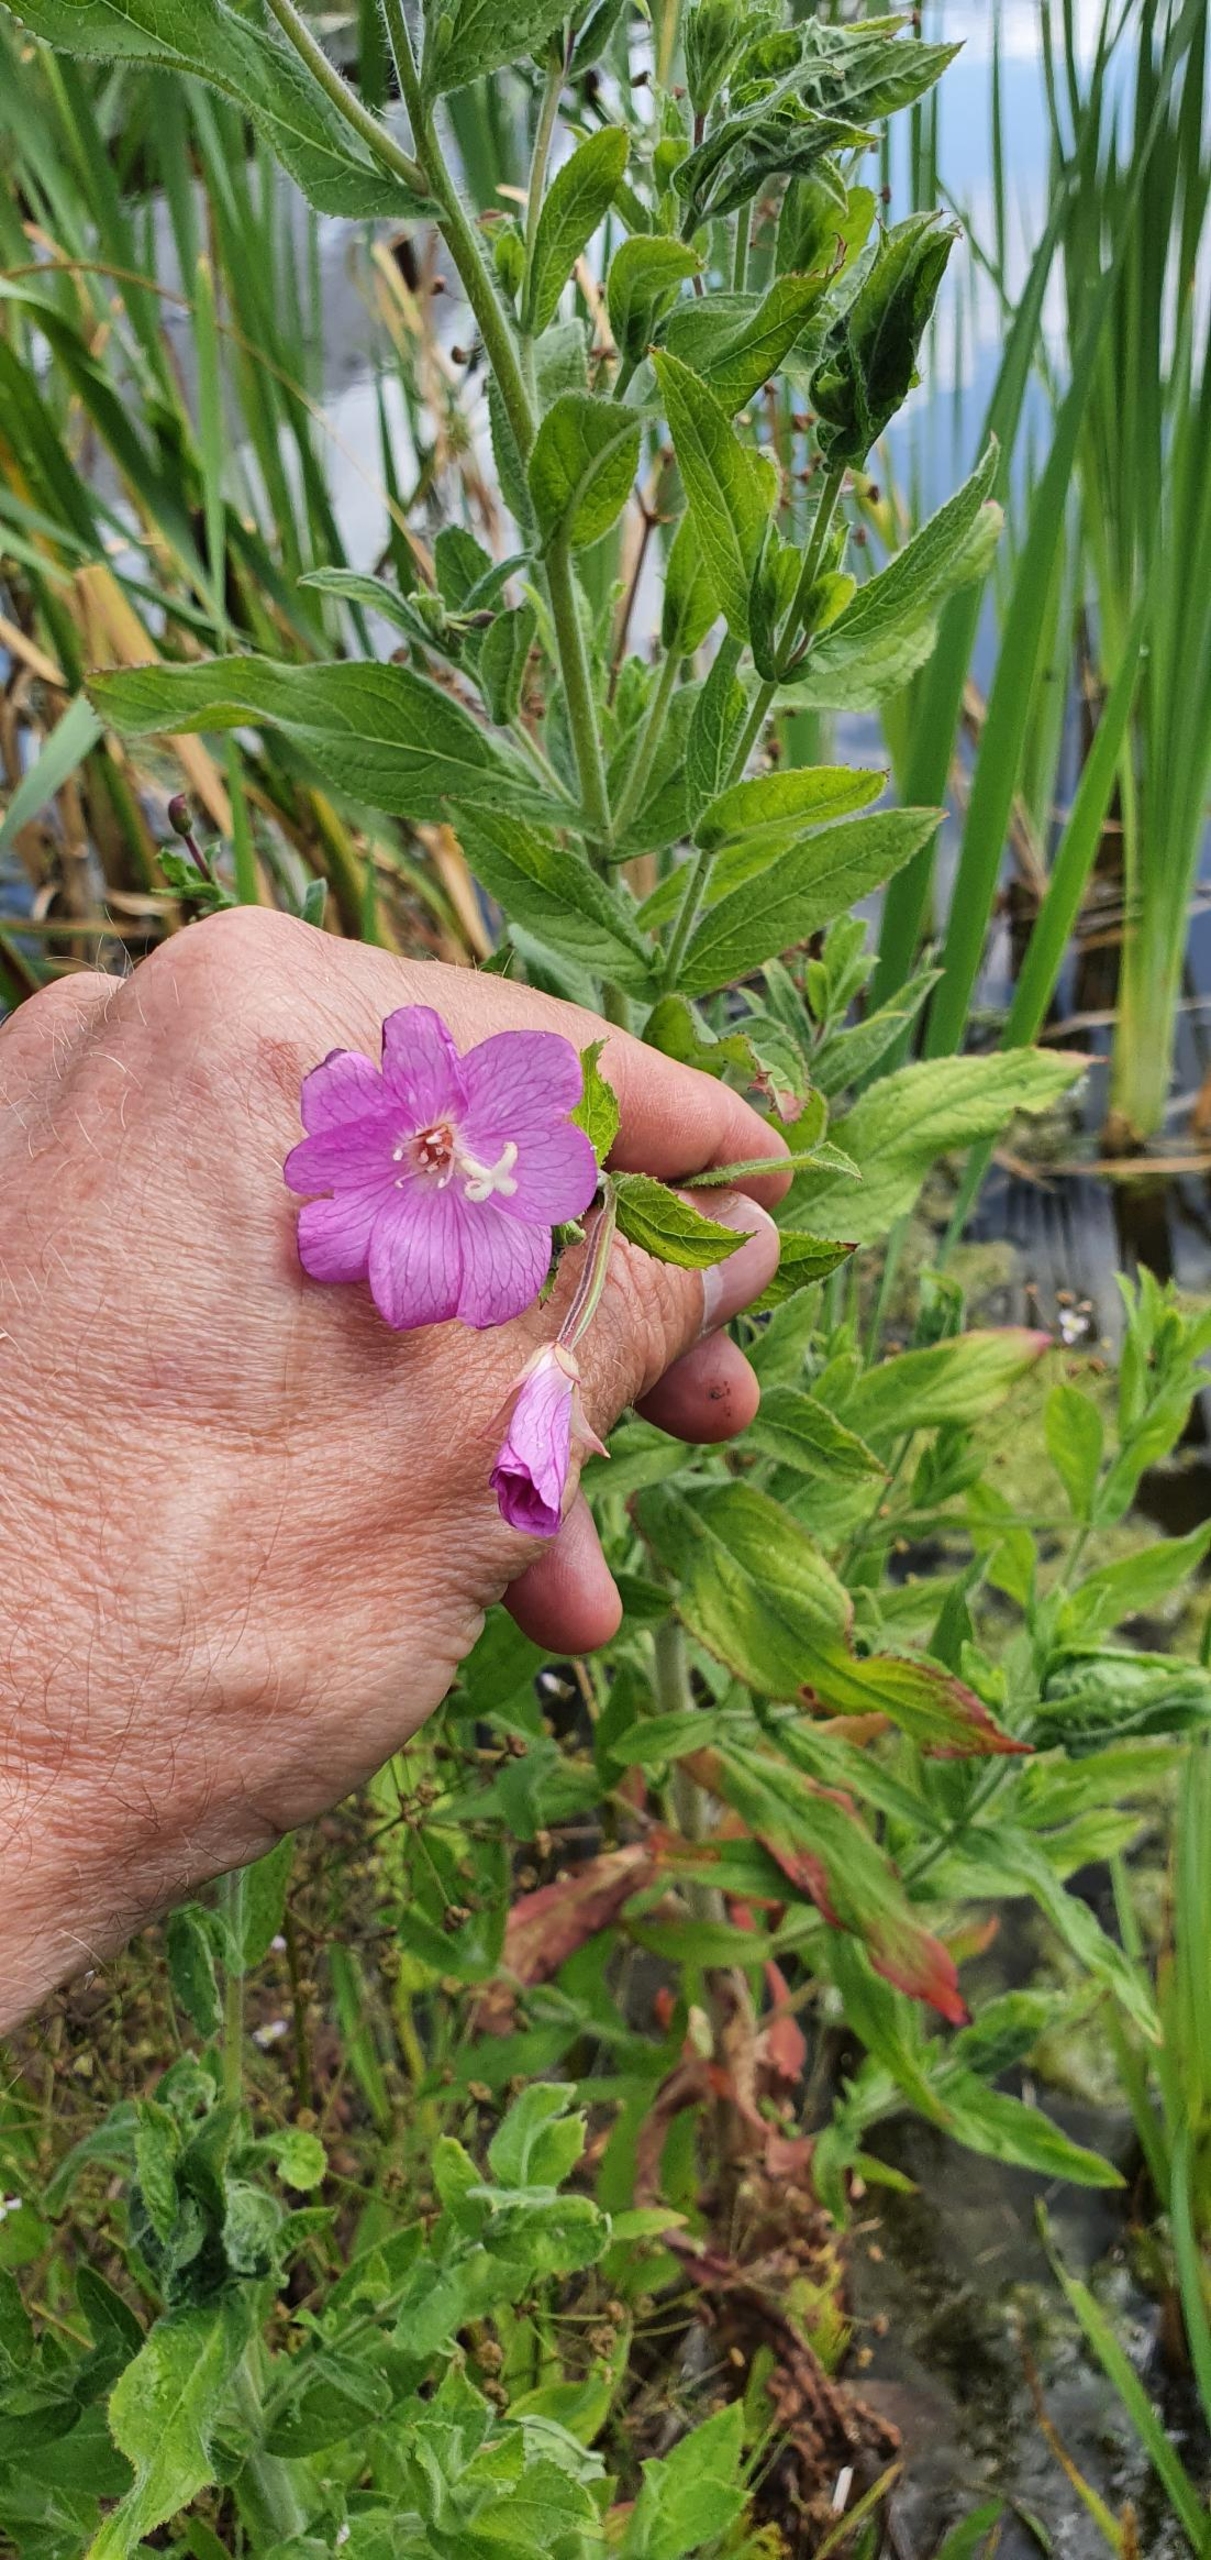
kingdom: Plantae
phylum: Tracheophyta
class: Magnoliopsida
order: Myrtales
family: Onagraceae
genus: Epilobium
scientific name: Epilobium hirsutum
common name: Lådden dueurt
